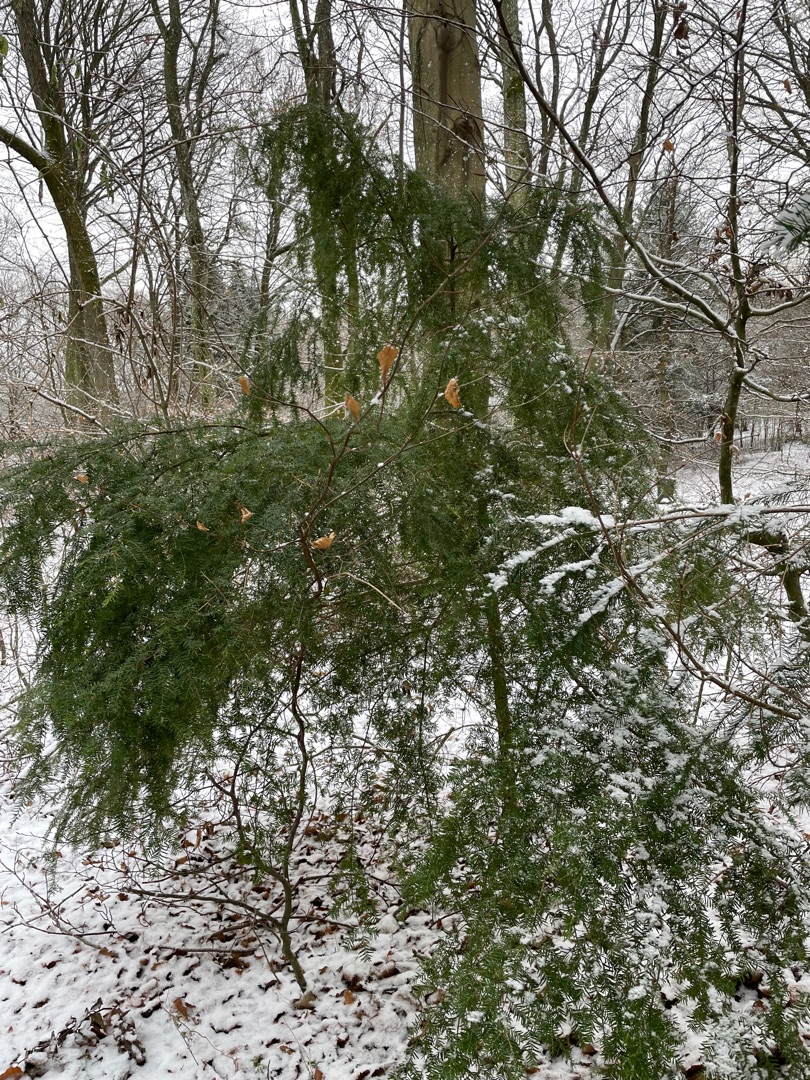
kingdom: Plantae
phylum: Tracheophyta
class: Pinopsida
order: Pinales
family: Pinaceae
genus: Tsuga
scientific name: Tsuga heterophylla
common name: Skarntydegran
